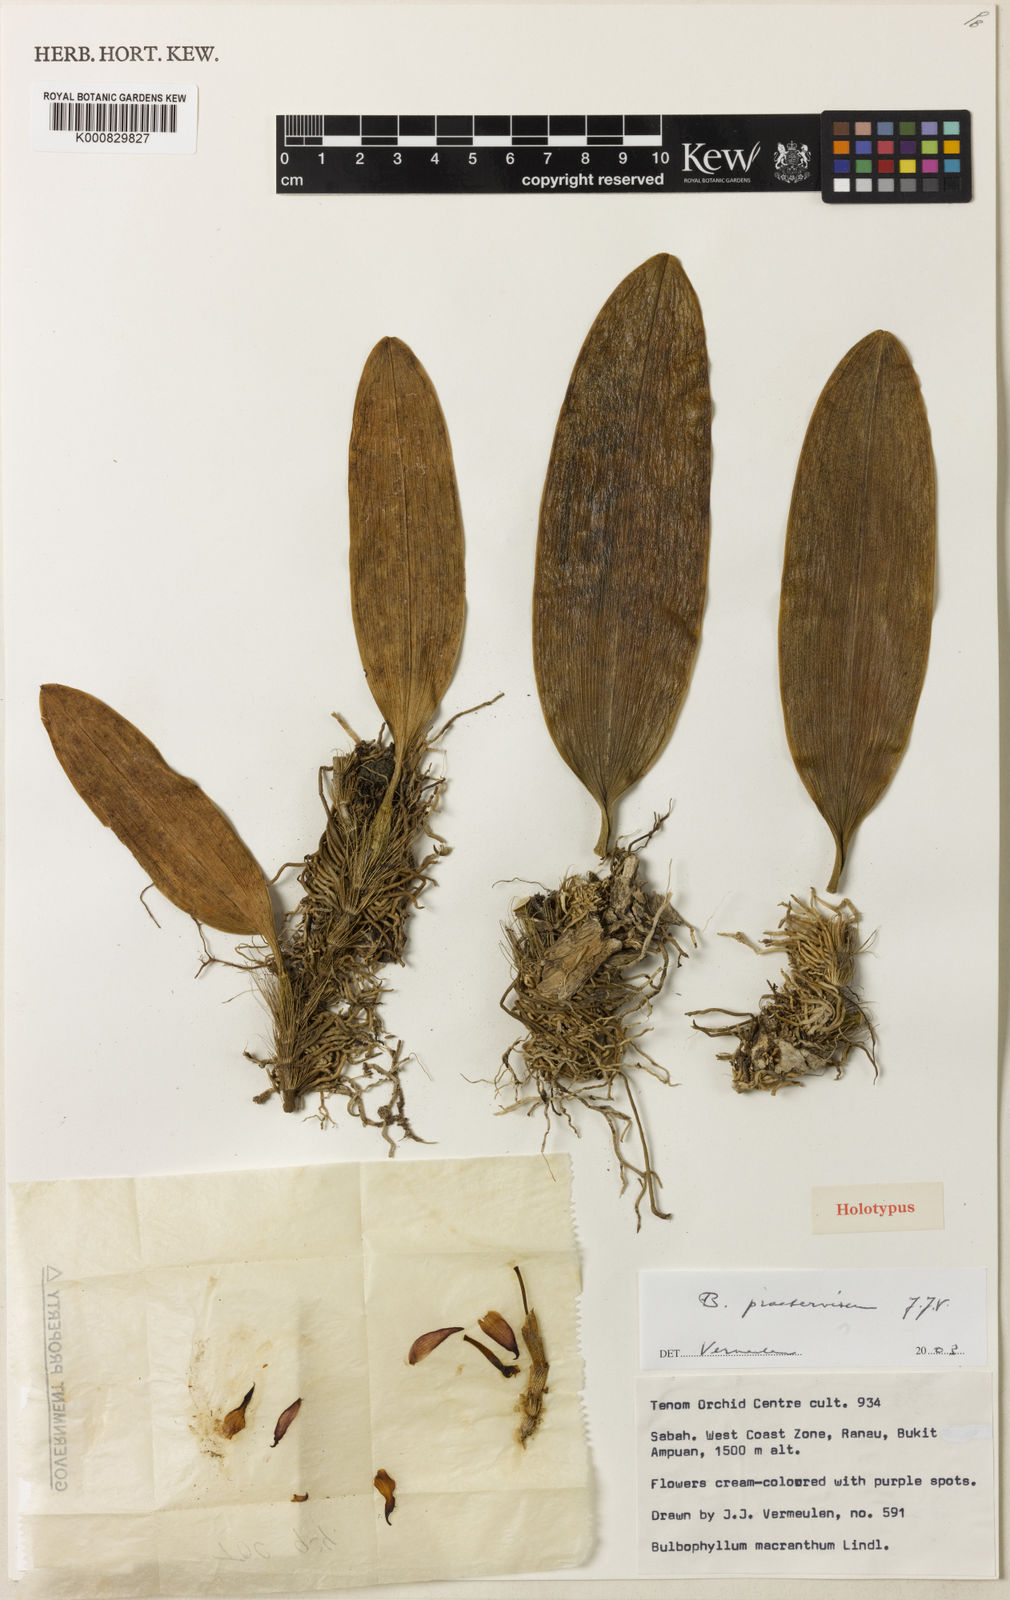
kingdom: Plantae
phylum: Tracheophyta
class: Liliopsida
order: Asparagales
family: Orchidaceae
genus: Bulbophyllum
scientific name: Bulbophyllum praetervisum
